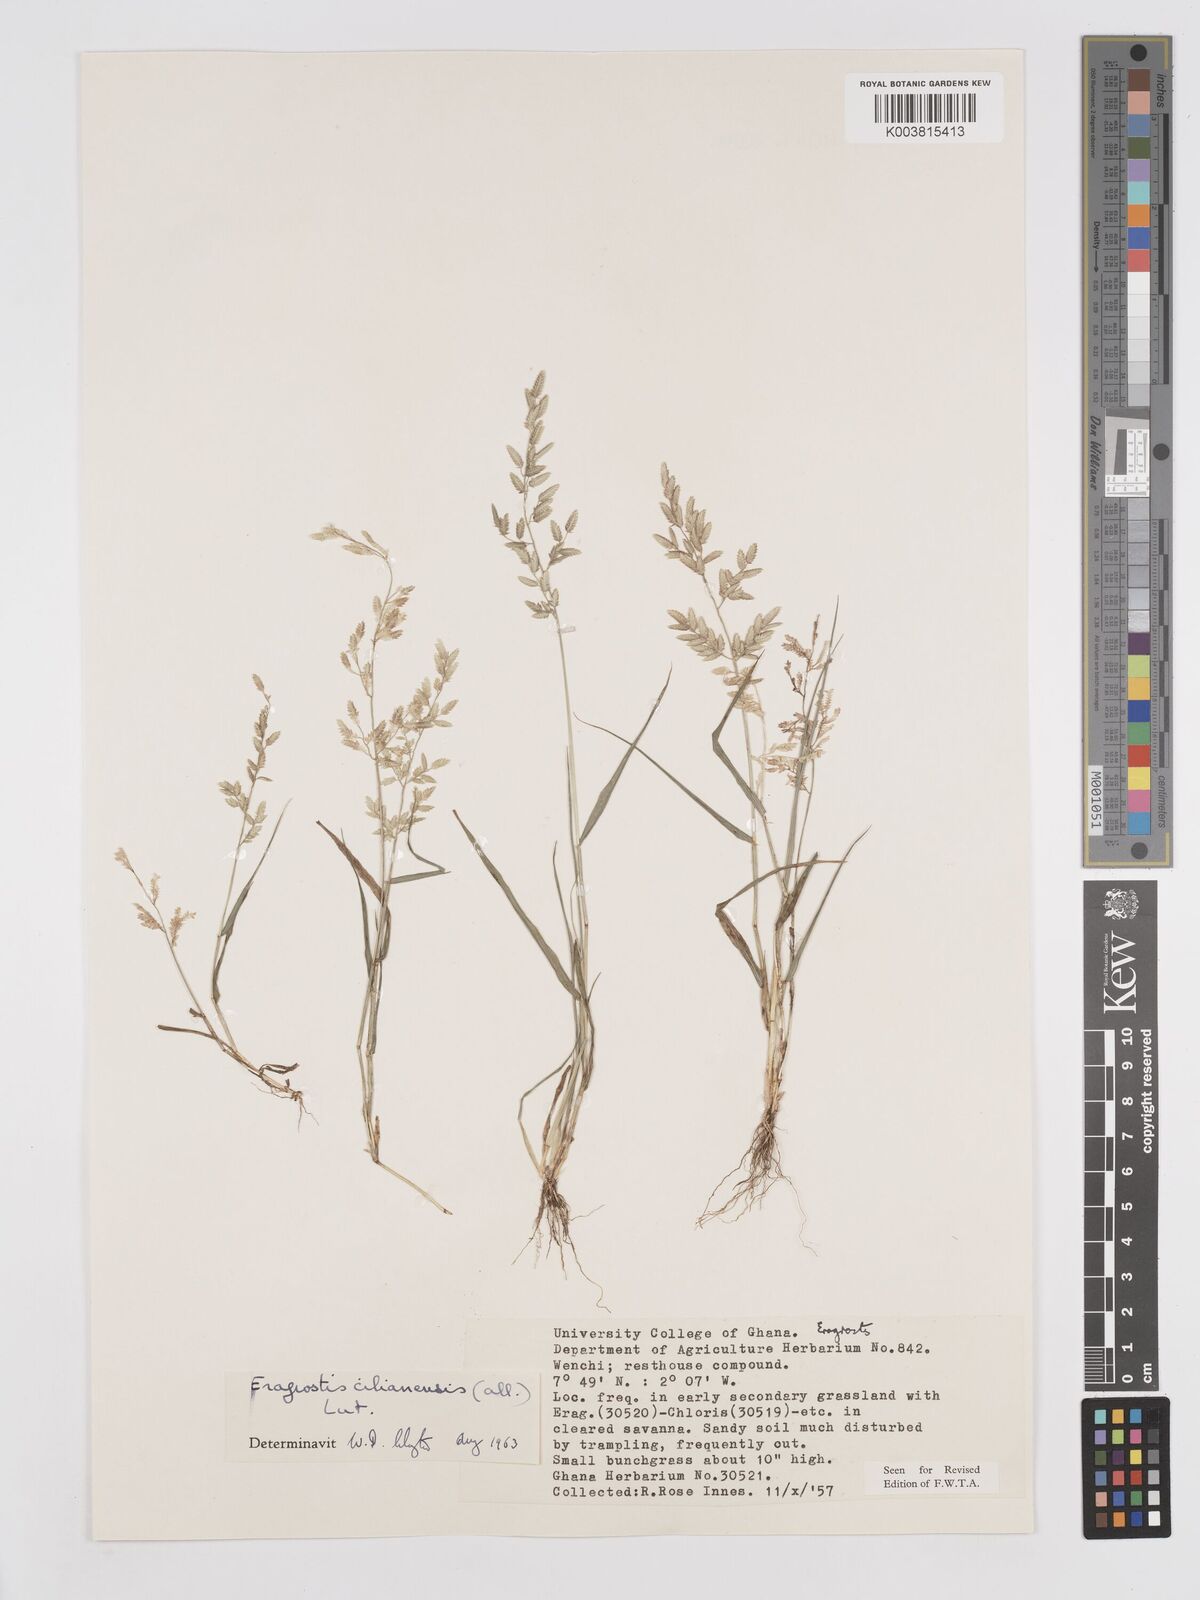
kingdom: Plantae
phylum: Tracheophyta
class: Liliopsida
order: Poales
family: Poaceae
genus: Eragrostis
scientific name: Eragrostis cilianensis
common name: Stinkgrass
